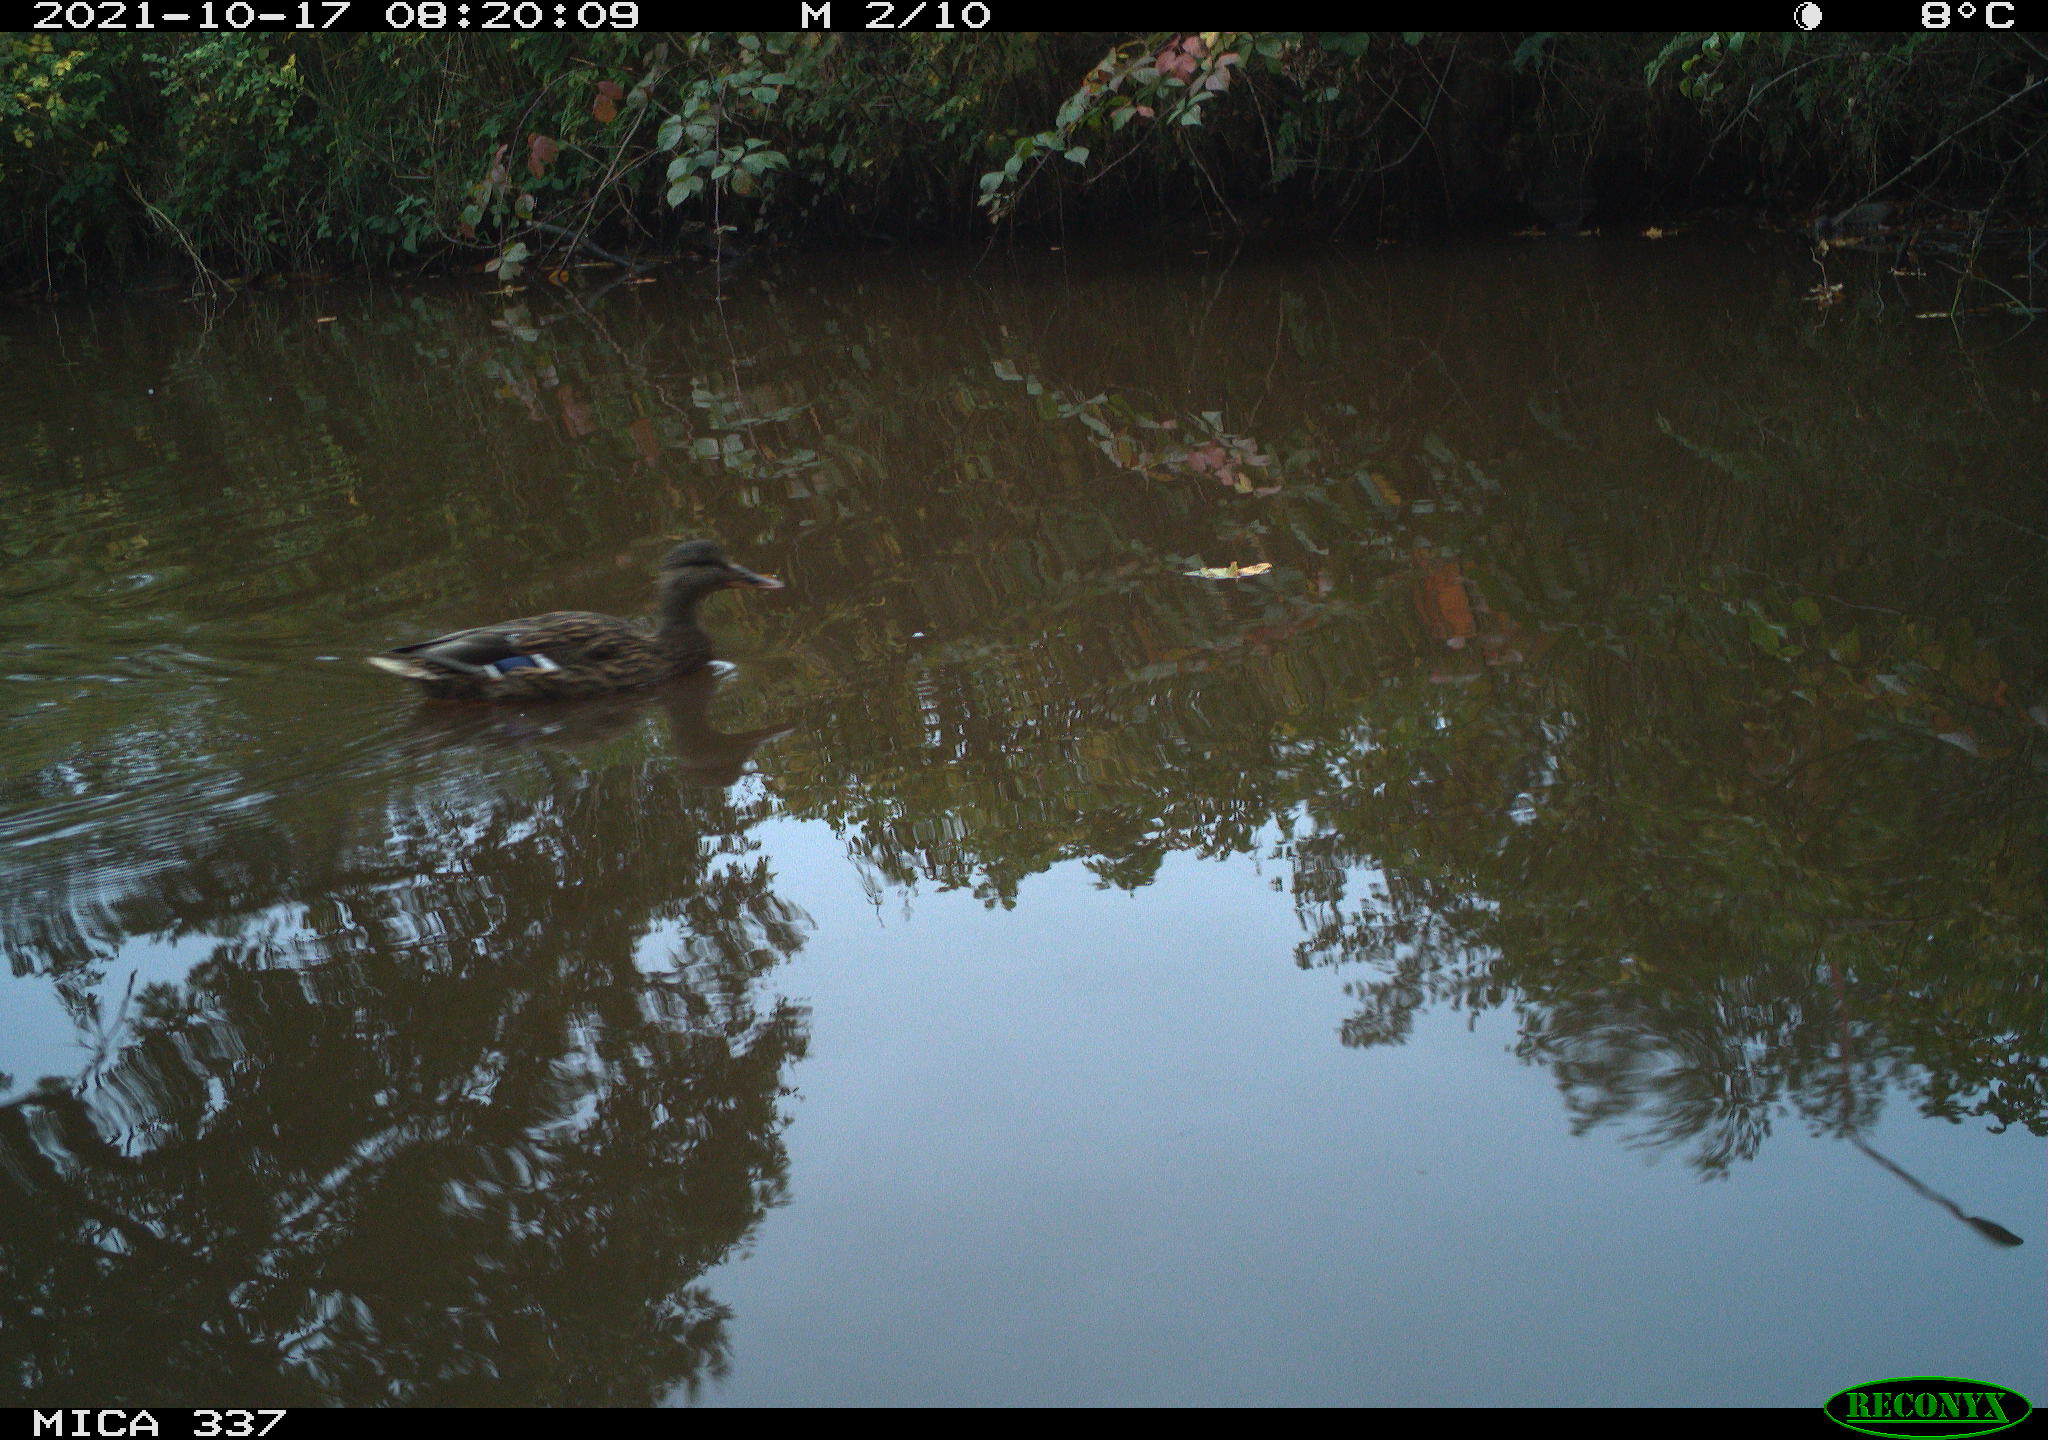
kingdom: Animalia
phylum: Chordata
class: Aves
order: Anseriformes
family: Anatidae
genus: Anas
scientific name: Anas platyrhynchos
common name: Mallard
